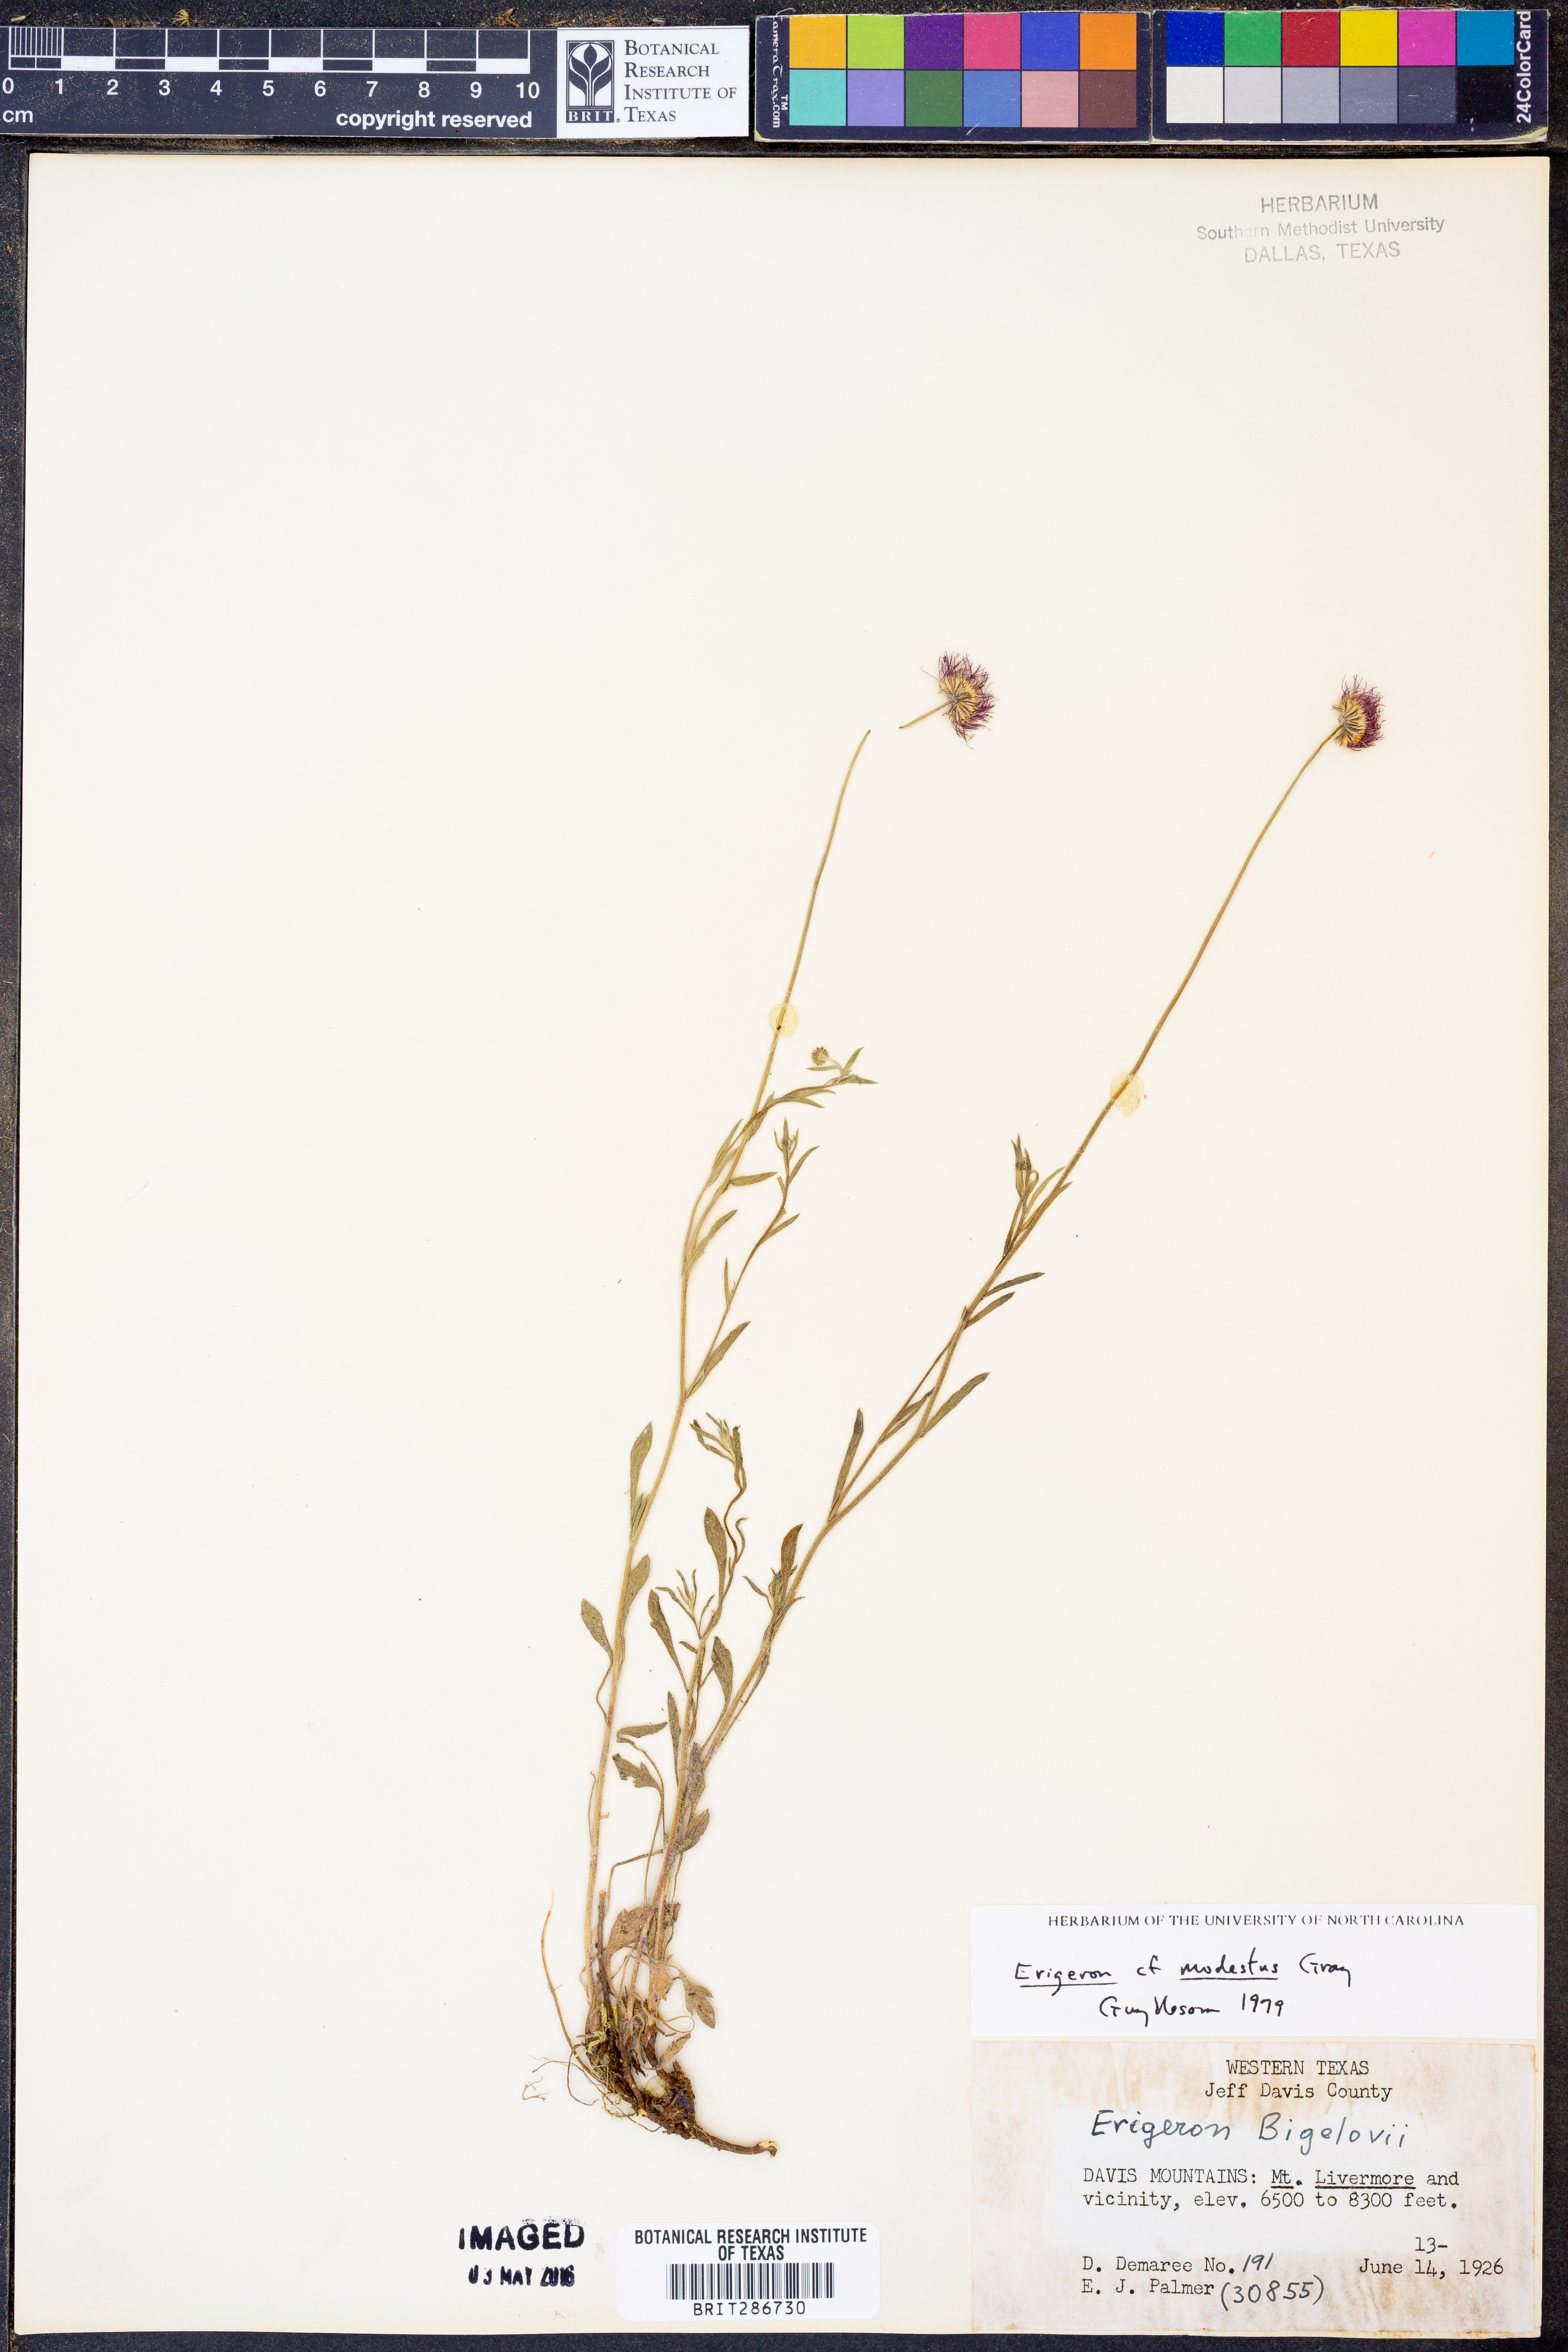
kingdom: Plantae
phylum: Tracheophyta
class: Magnoliopsida
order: Asterales
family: Asteraceae
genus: Erigeron
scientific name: Erigeron modestus
